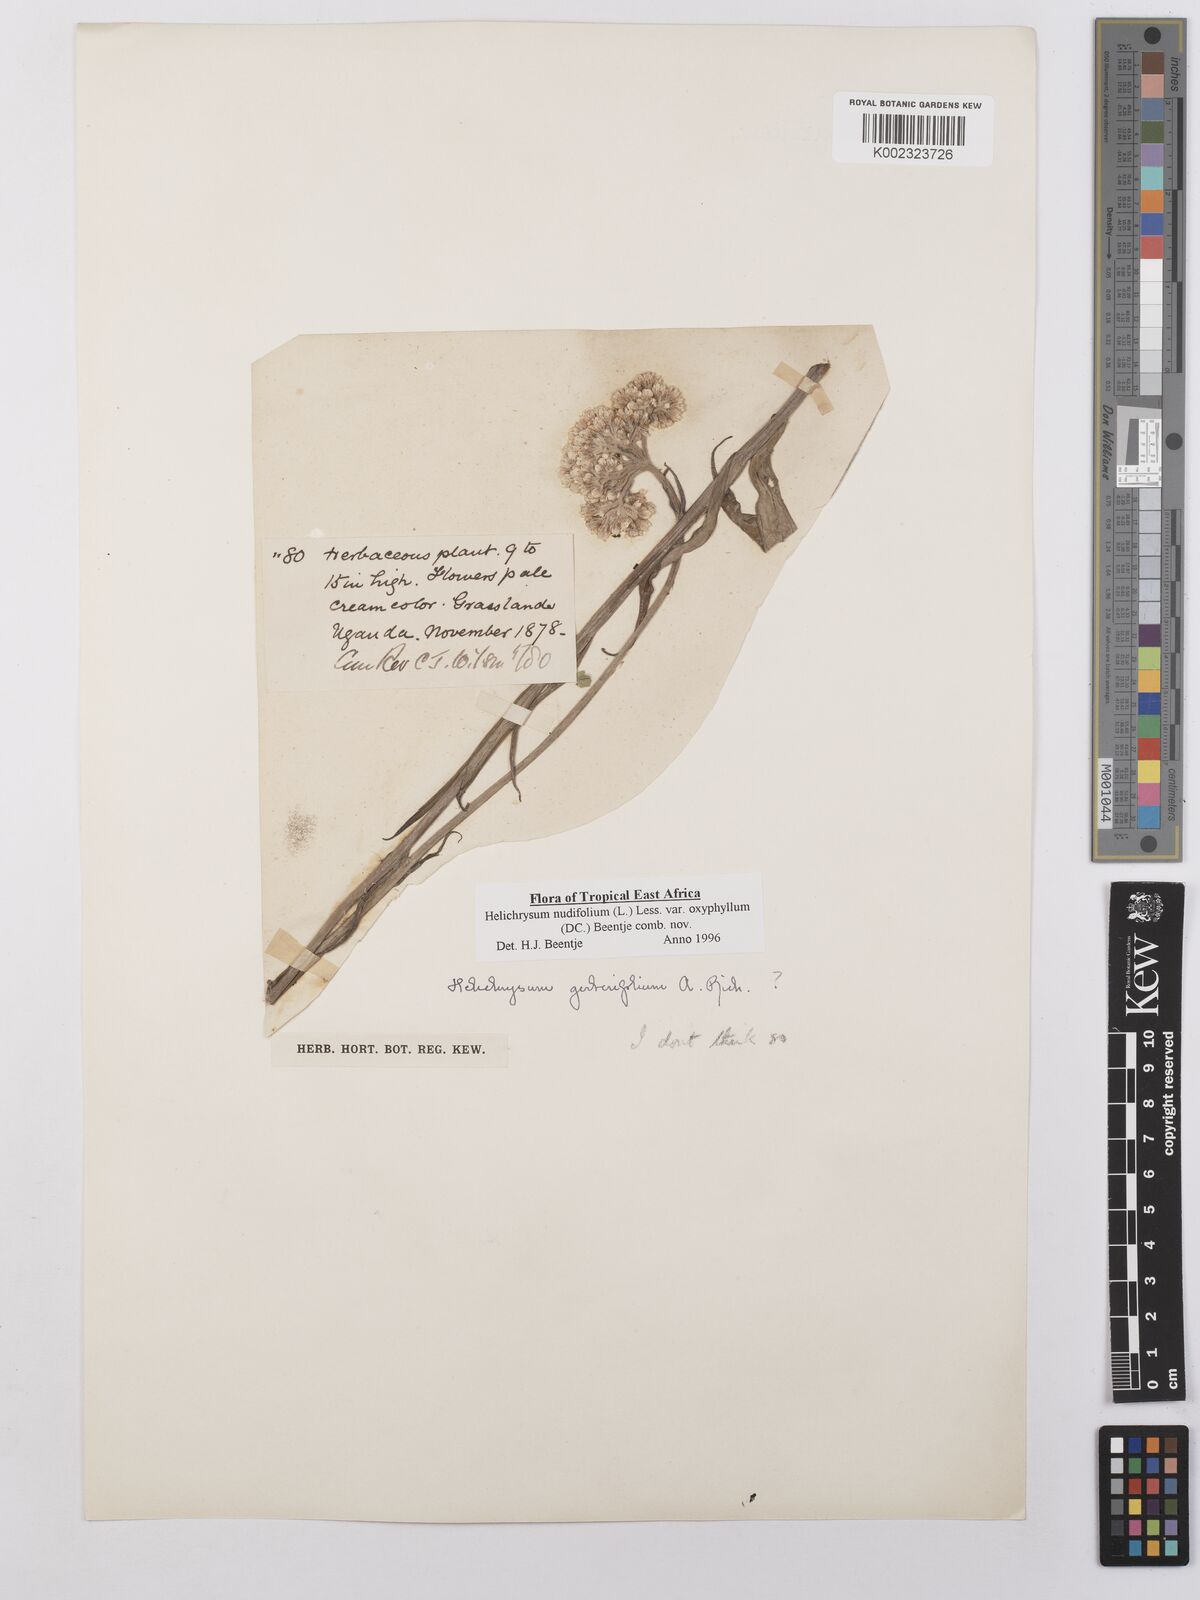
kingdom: Plantae
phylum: Tracheophyta
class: Magnoliopsida
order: Asterales
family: Asteraceae
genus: Helichrysum
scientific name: Helichrysum nudifolium
